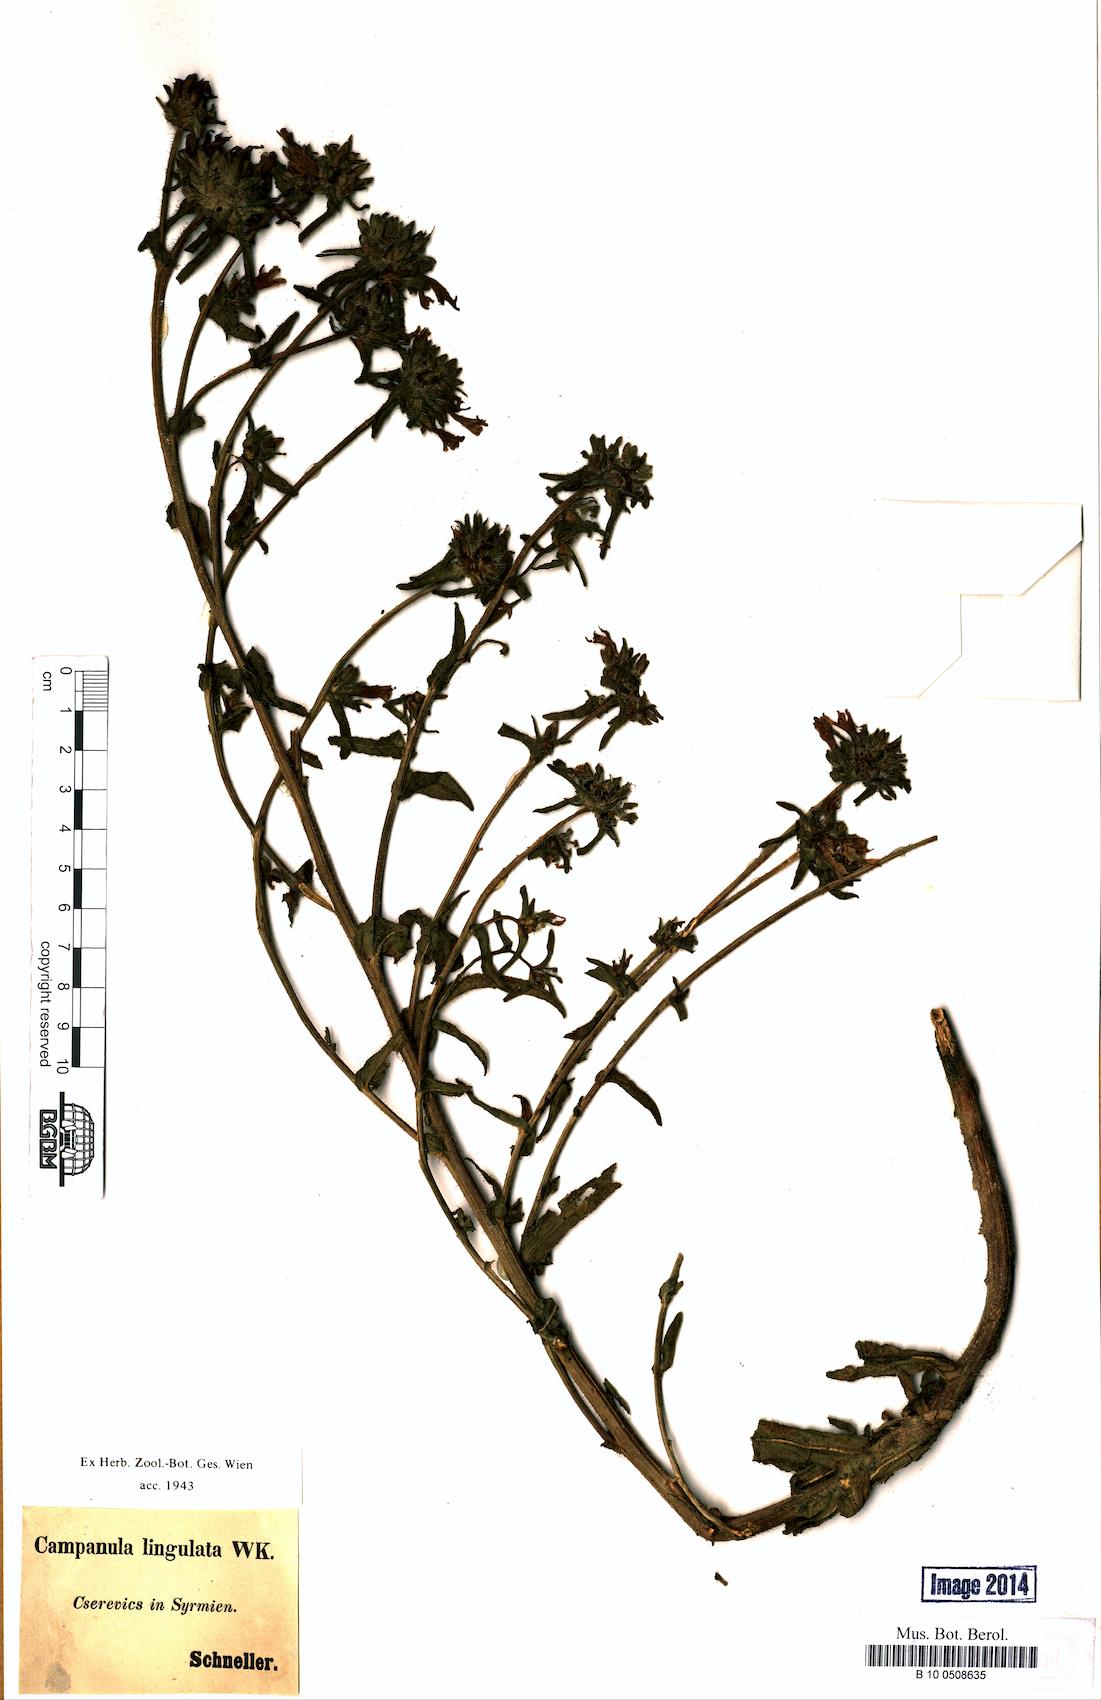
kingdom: Plantae
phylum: Tracheophyta
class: Magnoliopsida
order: Asterales
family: Campanulaceae
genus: Campanula
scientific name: Campanula lingulata
